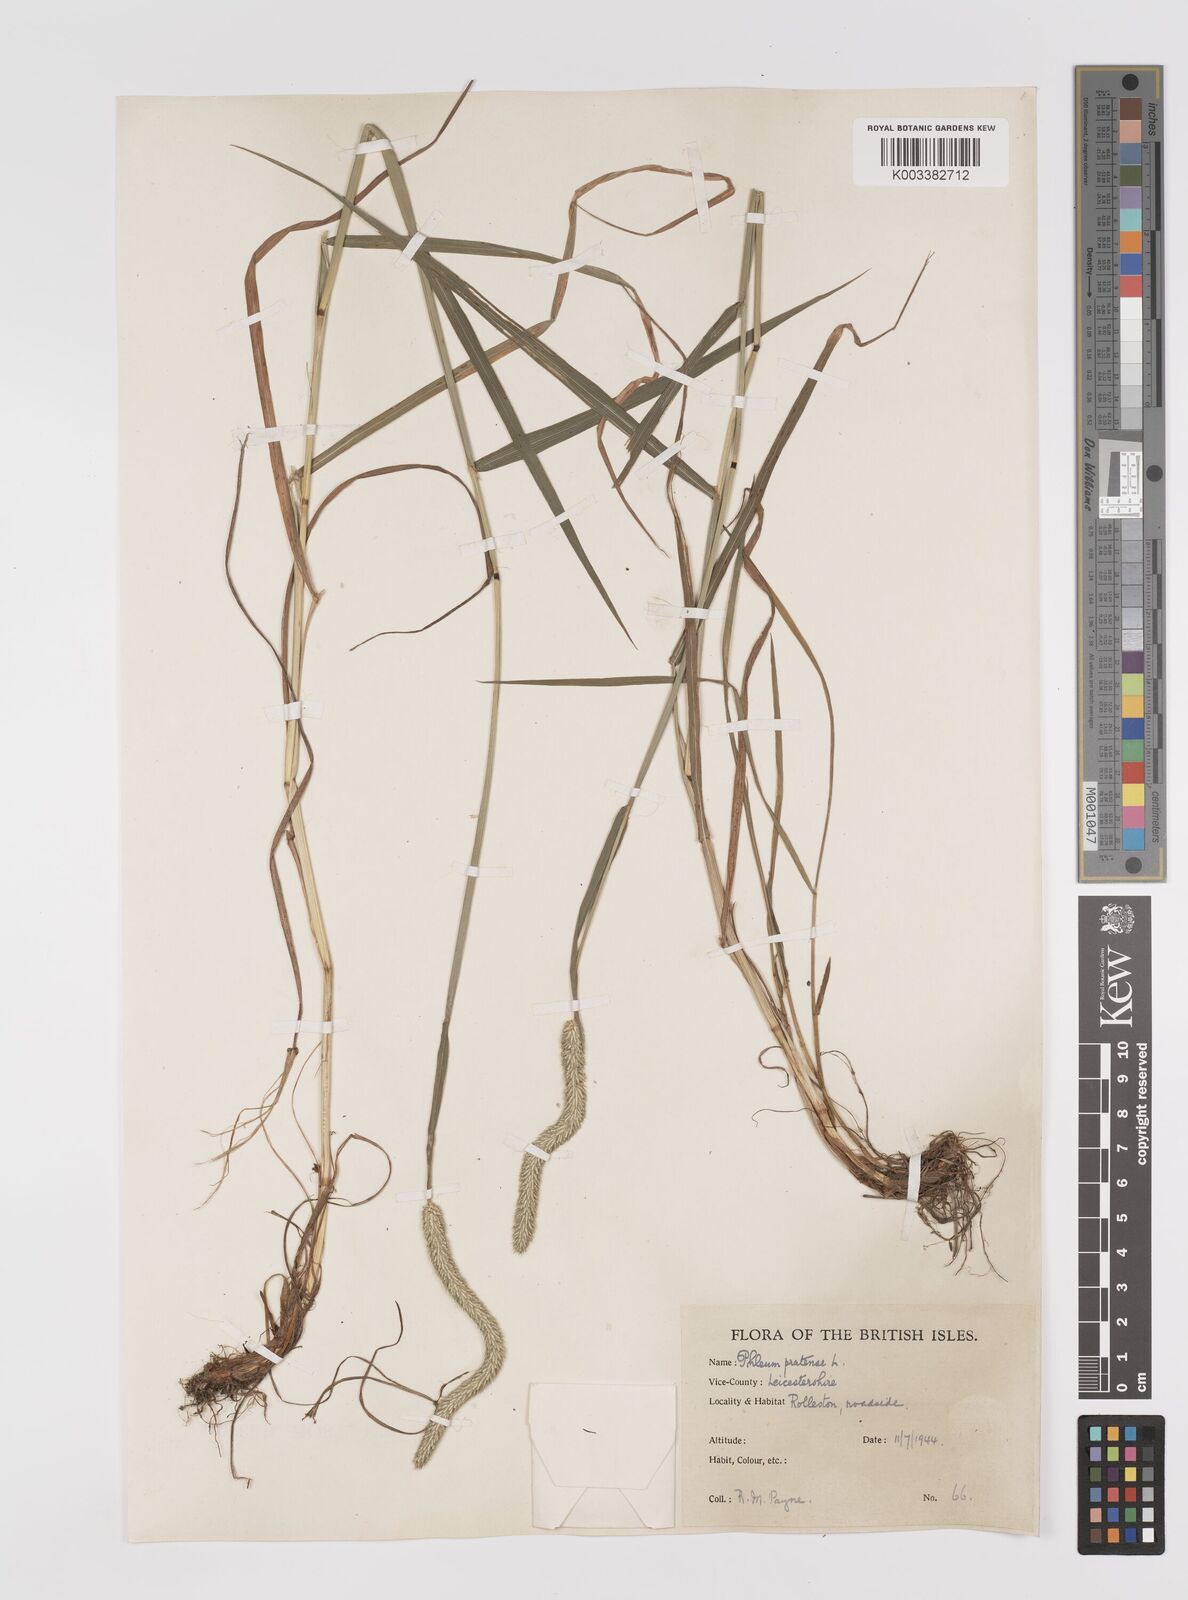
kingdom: Plantae
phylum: Tracheophyta
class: Liliopsida
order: Poales
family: Poaceae
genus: Phleum
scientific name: Phleum pratense
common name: Timothy grass
